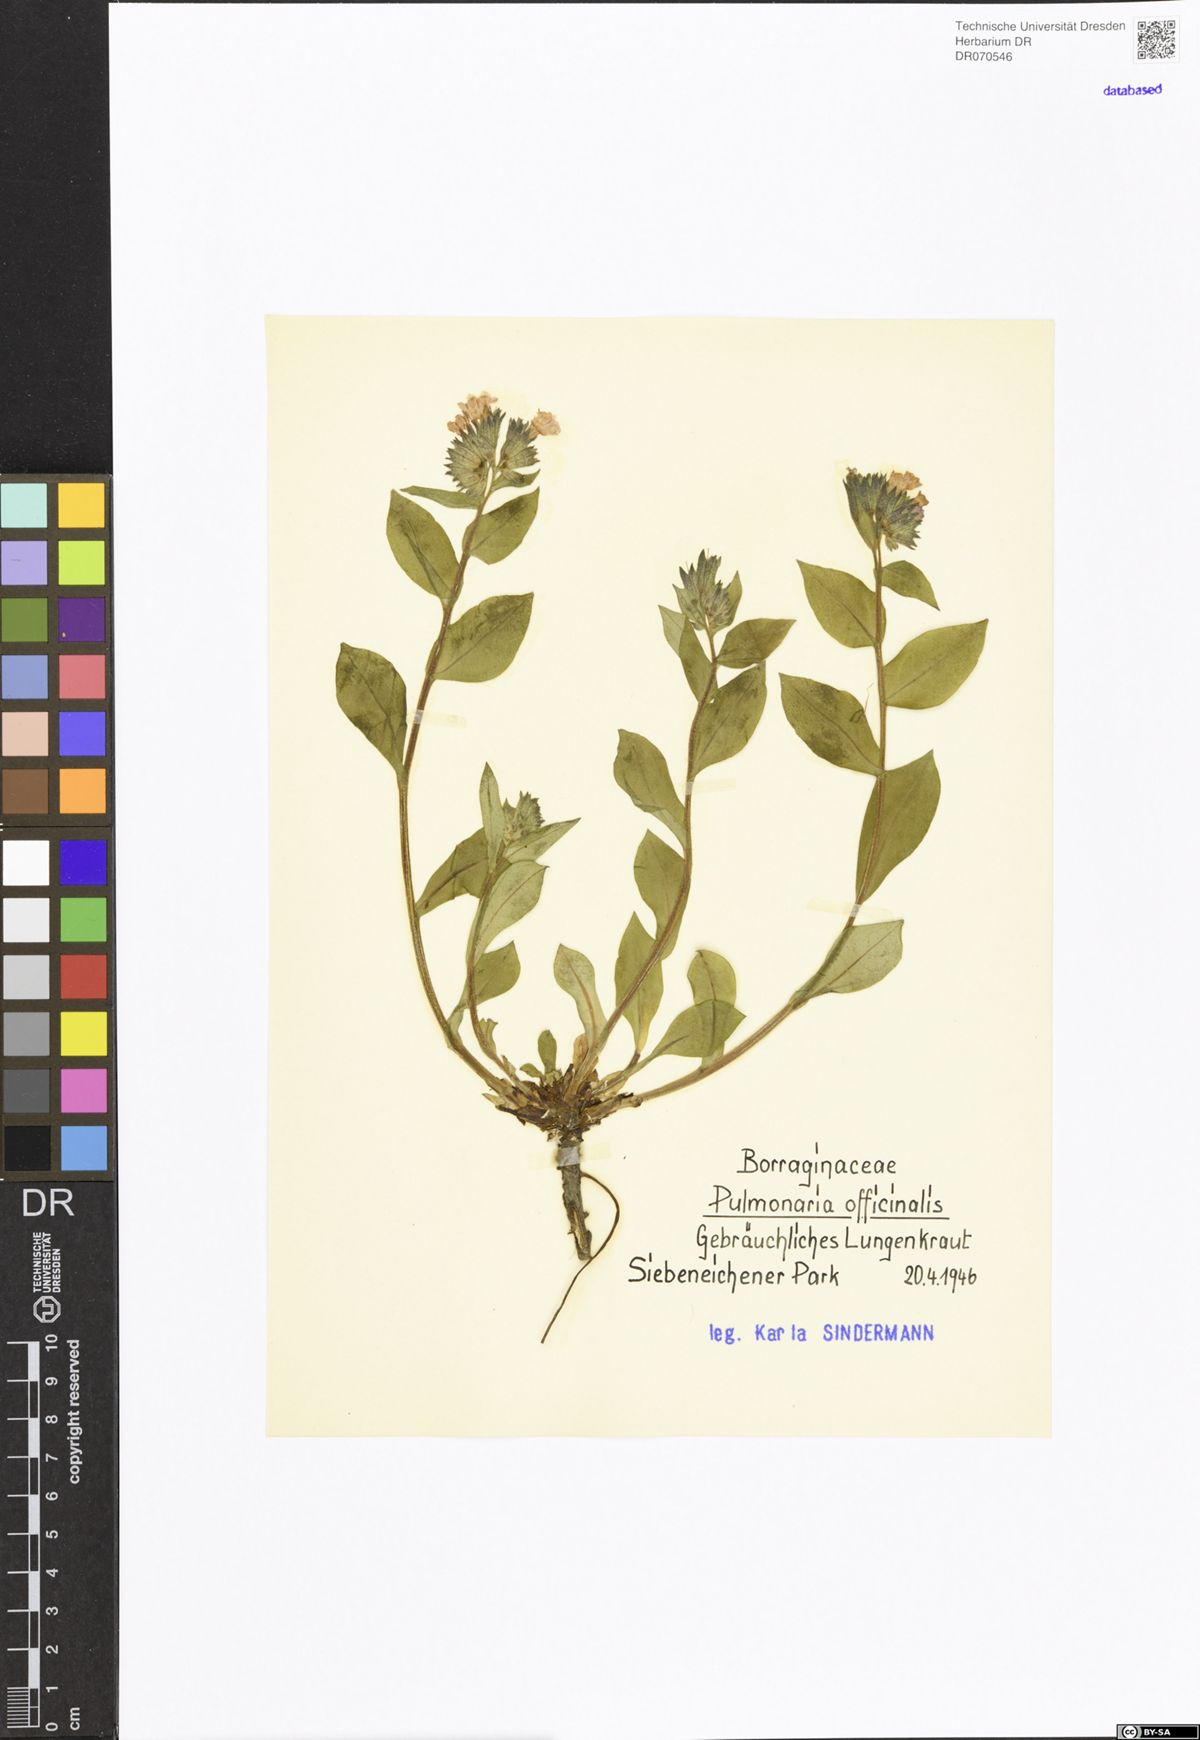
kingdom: Plantae
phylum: Tracheophyta
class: Magnoliopsida
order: Boraginales
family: Boraginaceae
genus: Pulmonaria
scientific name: Pulmonaria officinalis
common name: Lungwort
